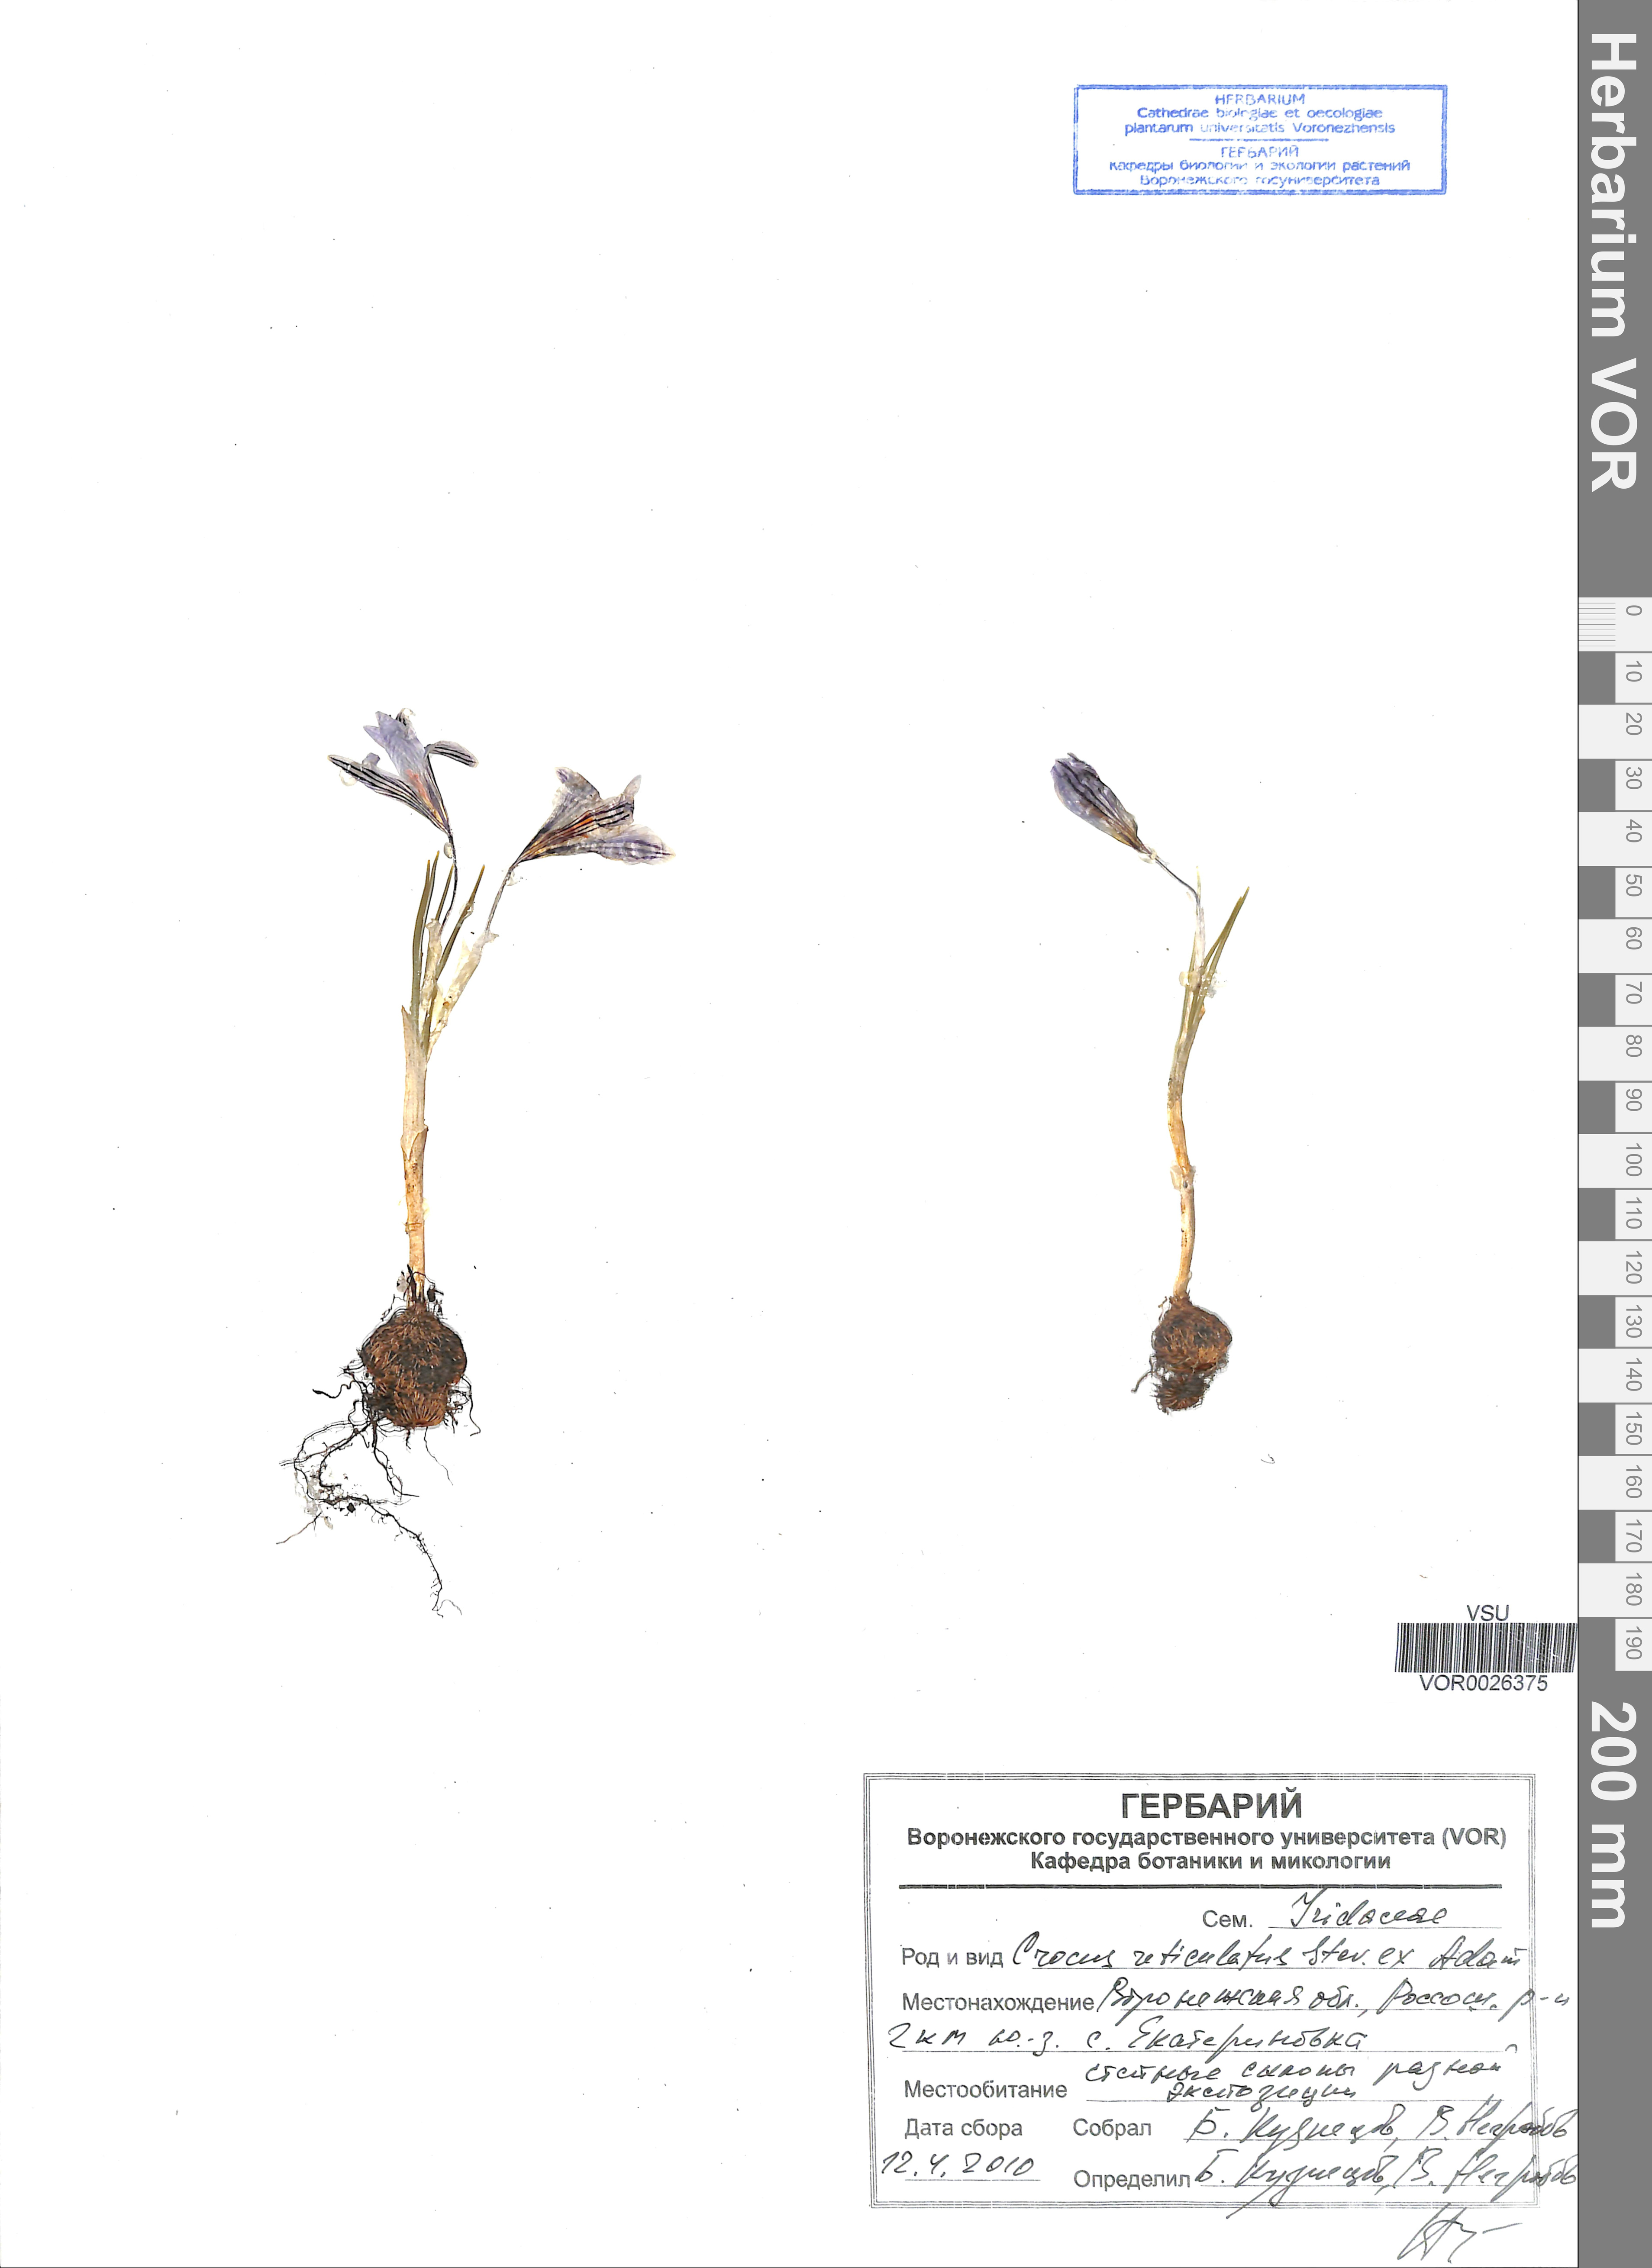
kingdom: Plantae
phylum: Tracheophyta
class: Liliopsida
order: Asparagales
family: Iridaceae
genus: Crocus
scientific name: Crocus reticulatus
